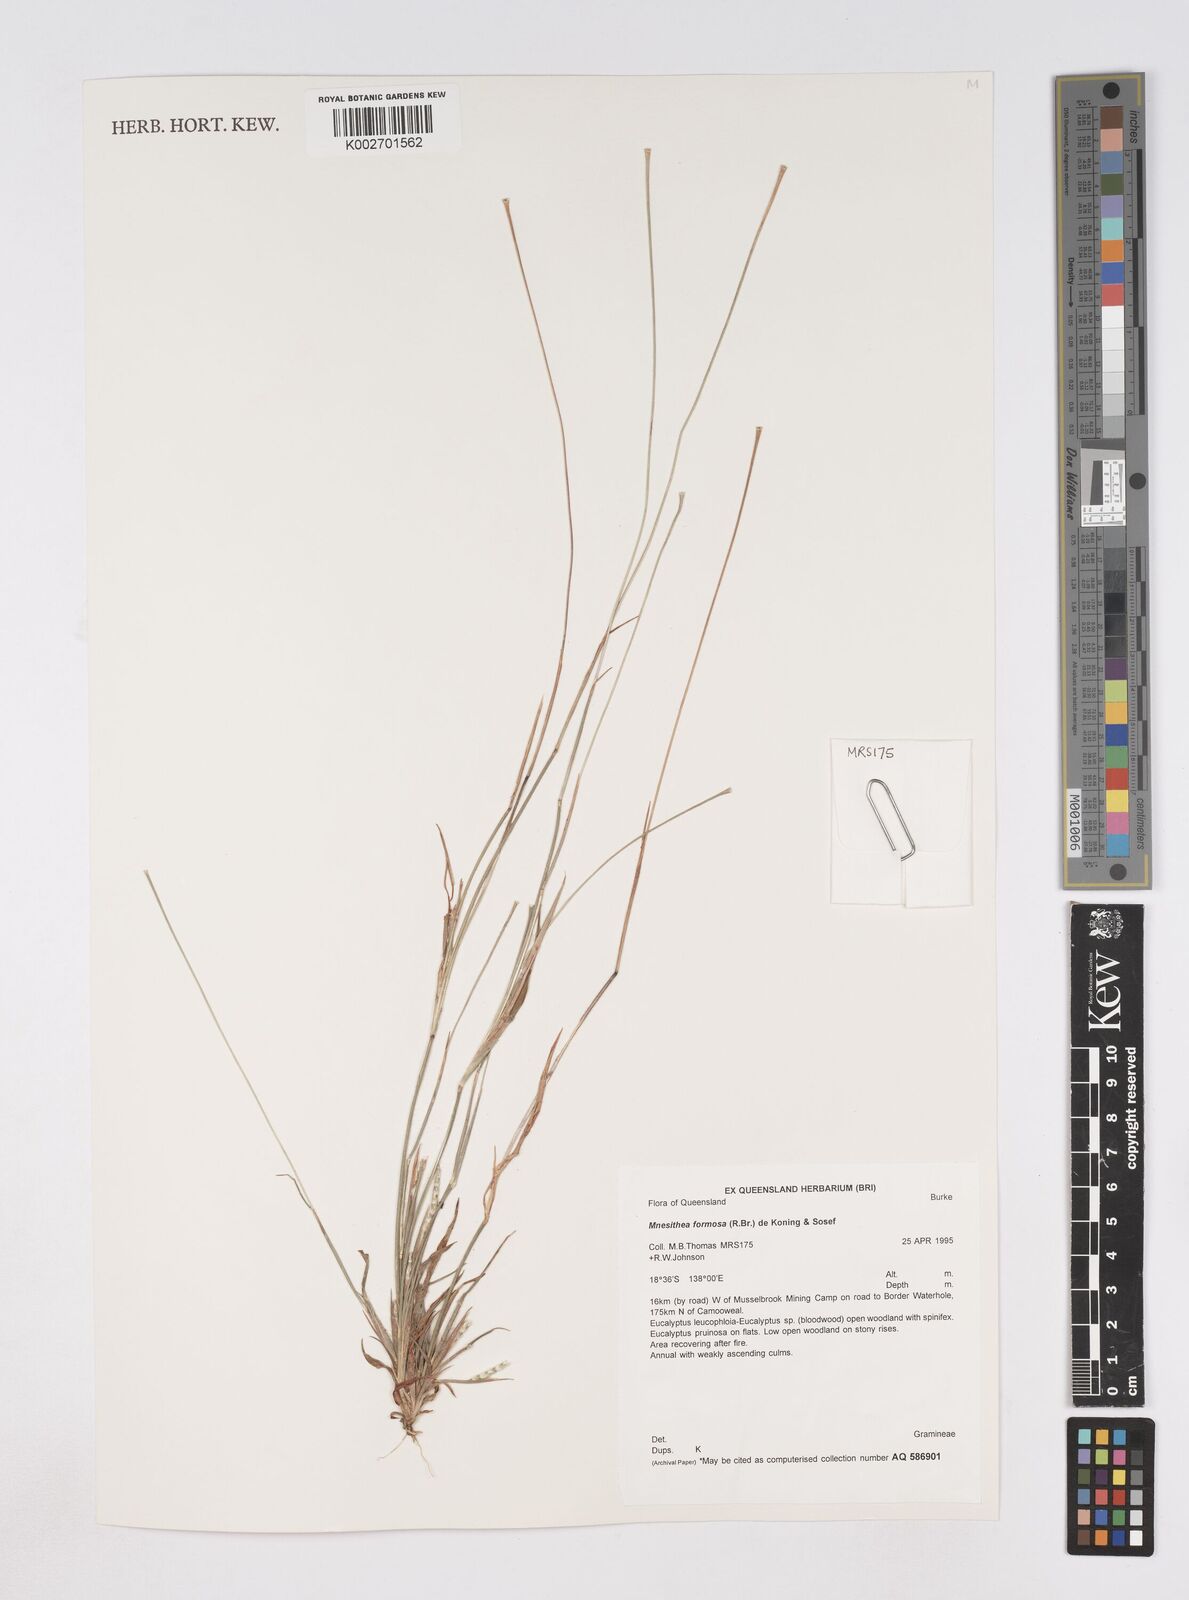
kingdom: Plantae
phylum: Tracheophyta
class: Liliopsida
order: Poales
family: Poaceae
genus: Heteropholis
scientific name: Heteropholis
